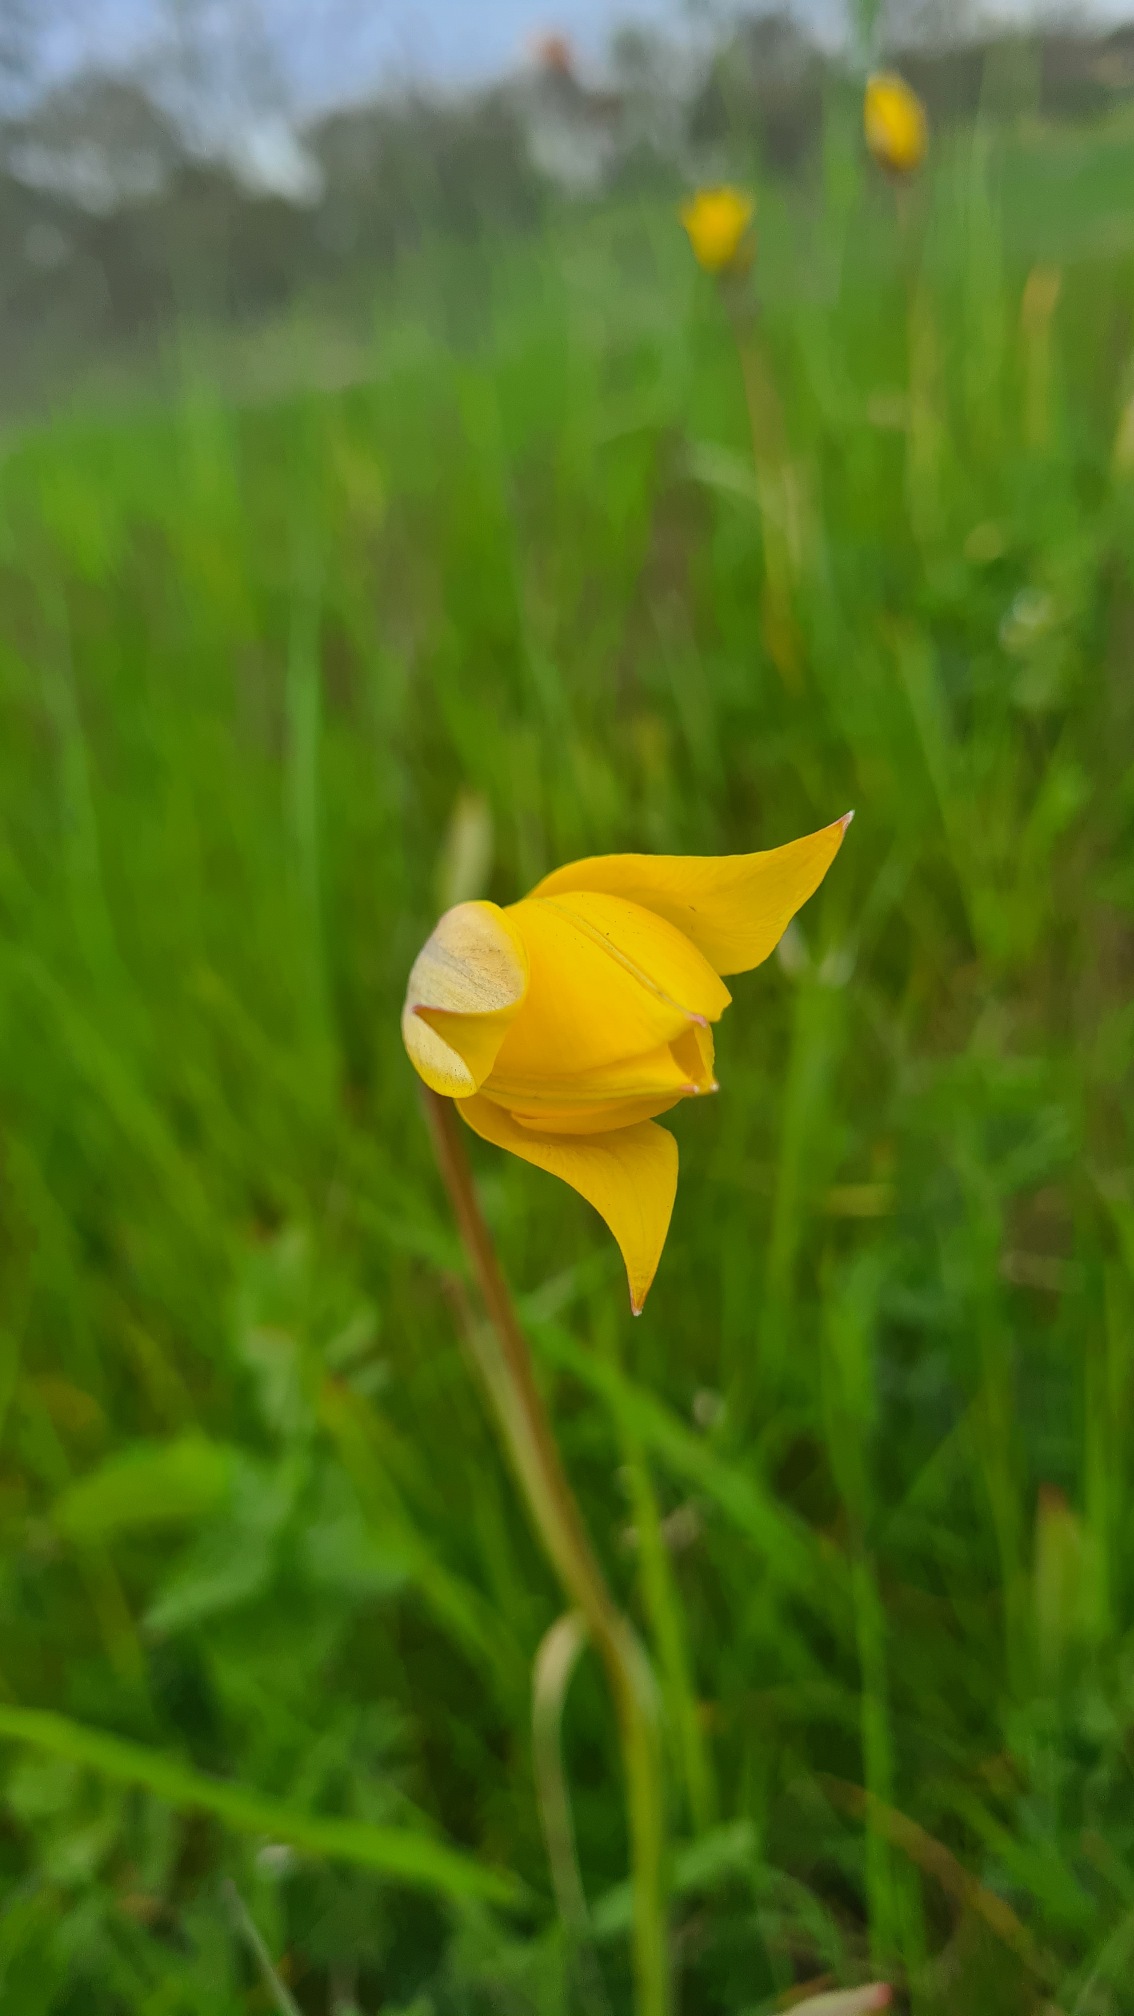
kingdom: Plantae
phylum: Tracheophyta
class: Liliopsida
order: Liliales
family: Liliaceae
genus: Tulipa
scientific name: Tulipa sylvestris
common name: Vild tulipan
